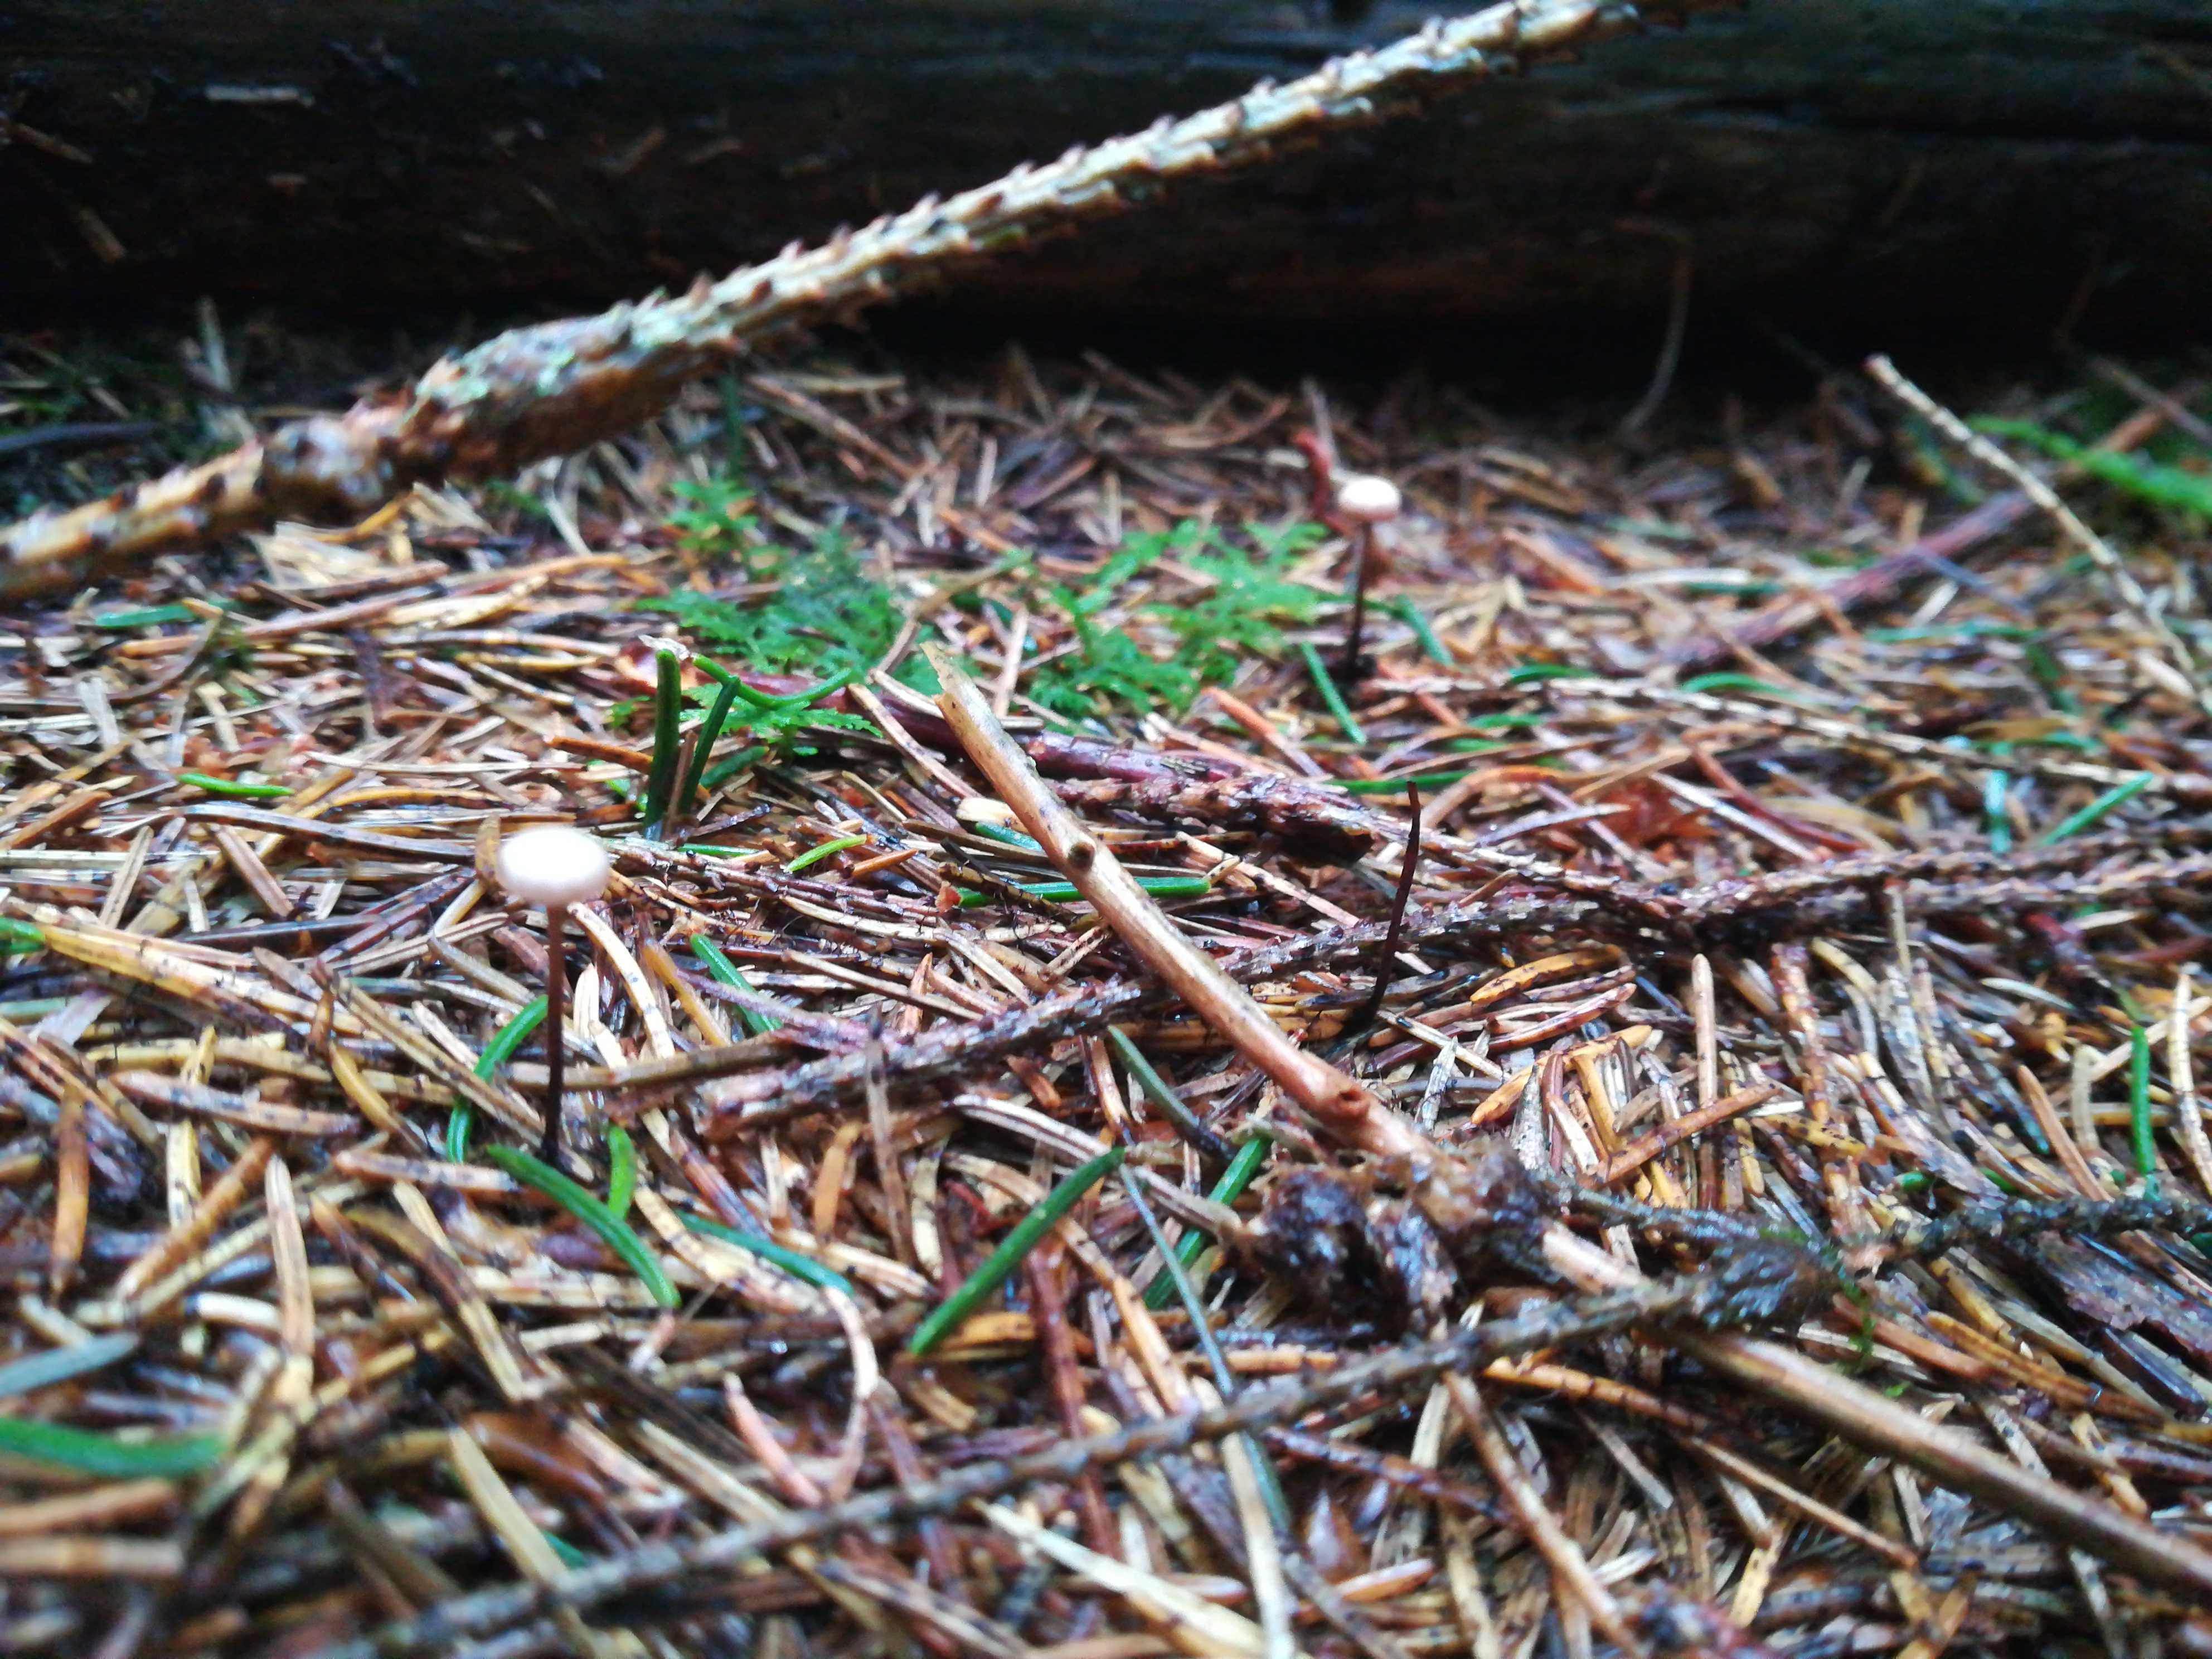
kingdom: Fungi
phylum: Basidiomycota
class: Agaricomycetes
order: Agaricales
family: Omphalotaceae
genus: Paragymnopus
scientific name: Paragymnopus perforans
